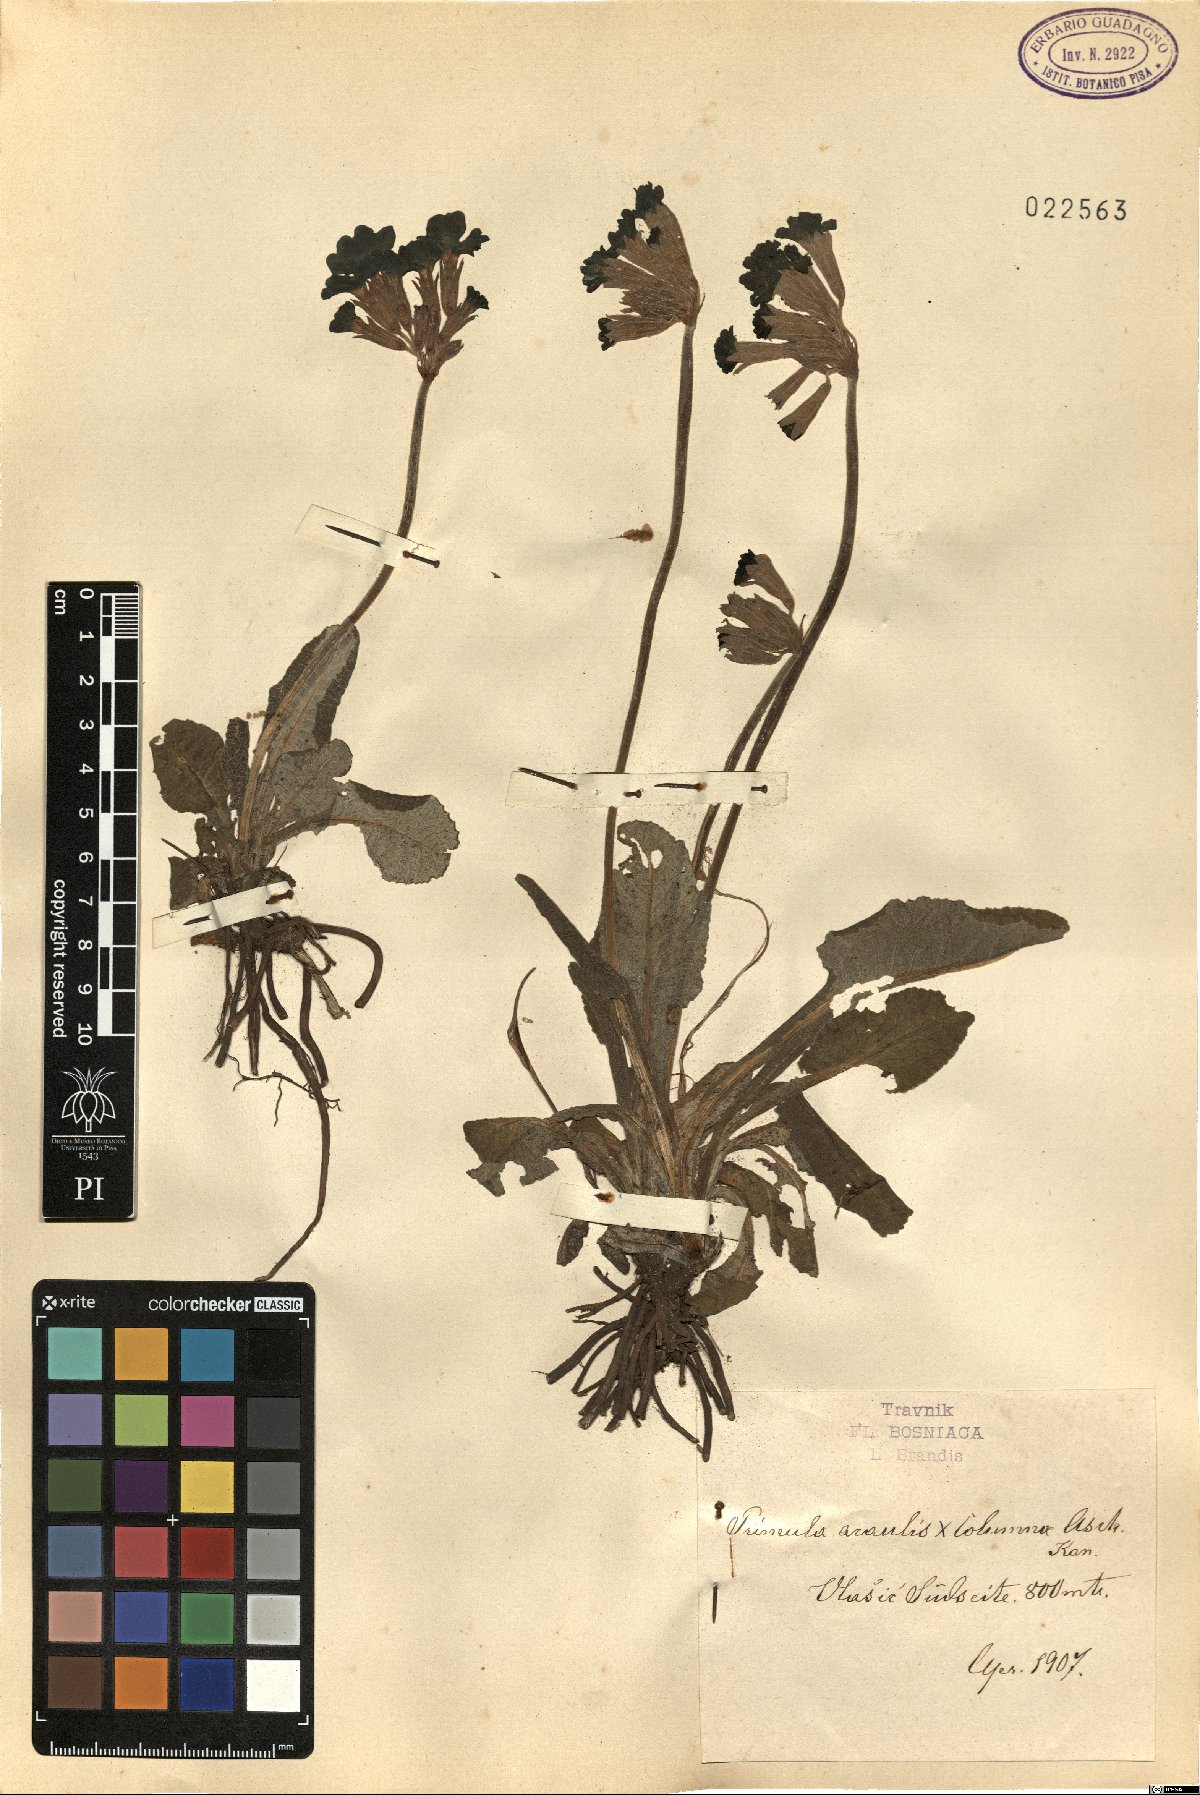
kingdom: Plantae
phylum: Tracheophyta
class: Magnoliopsida
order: Ericales
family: Primulaceae
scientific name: Primulaceae
